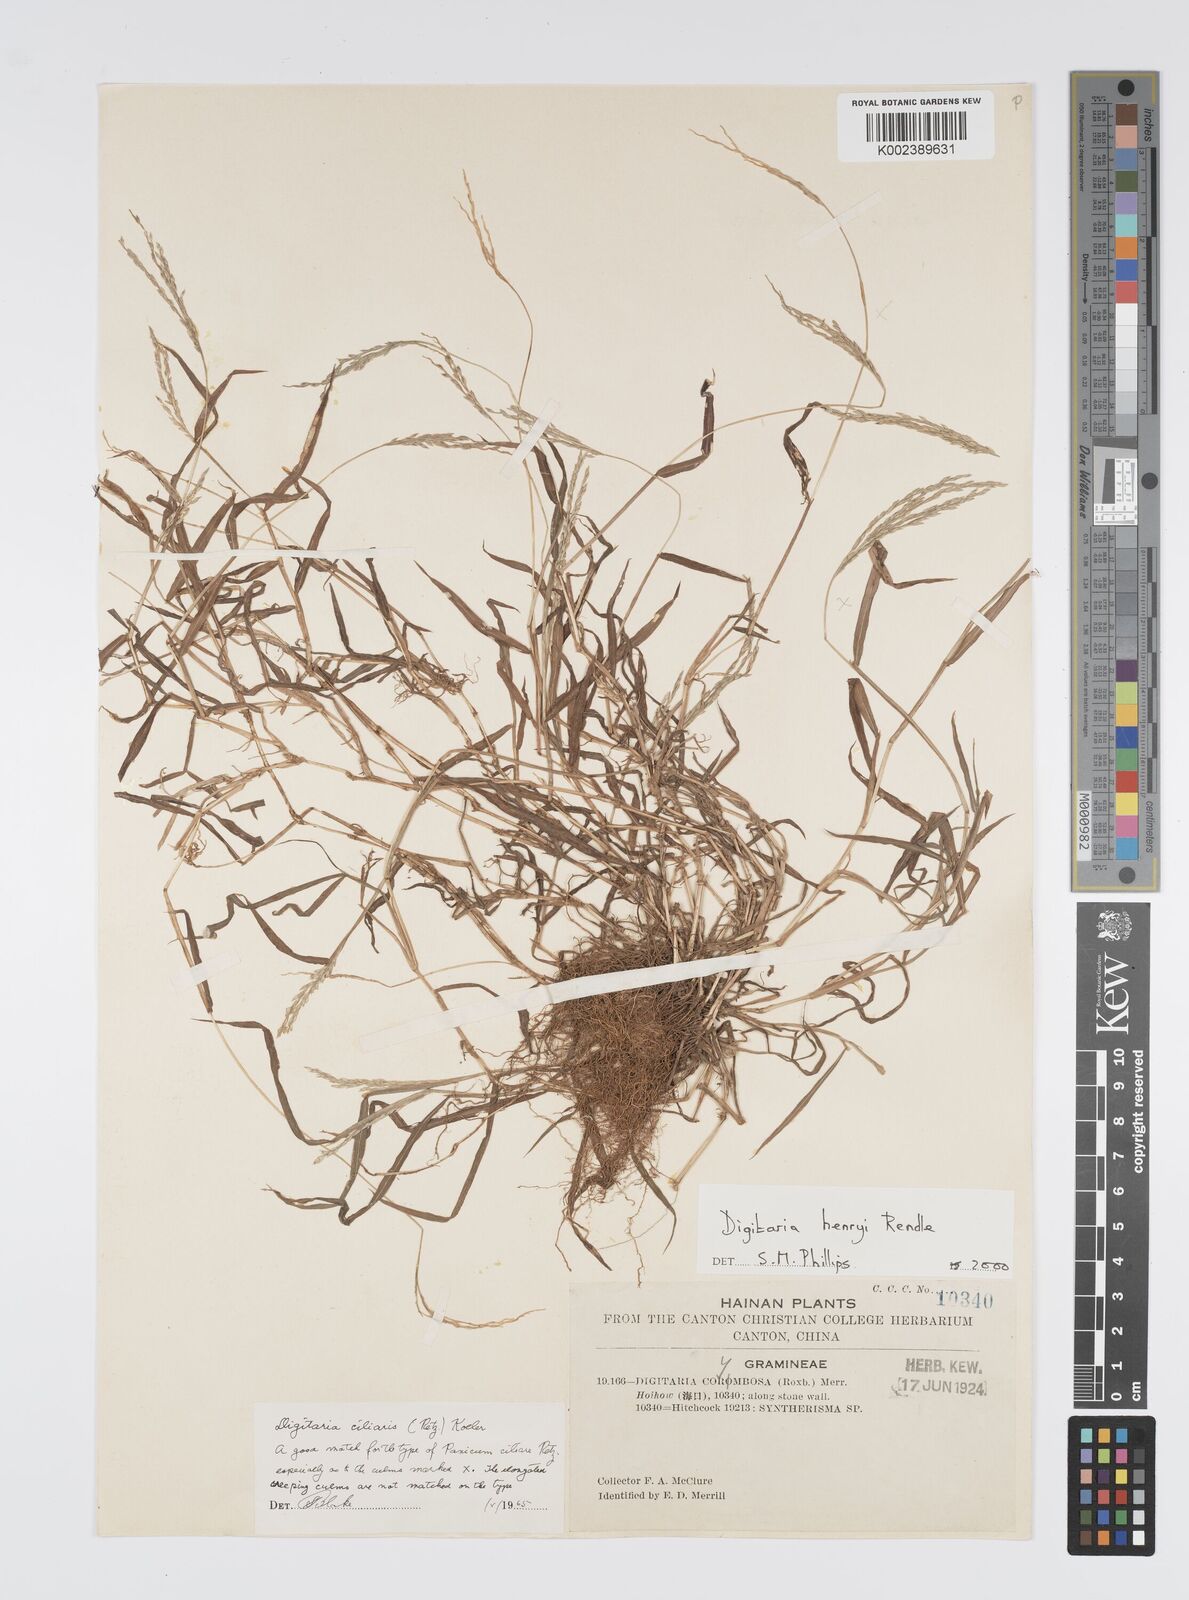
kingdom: Plantae
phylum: Tracheophyta
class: Liliopsida
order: Poales
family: Poaceae
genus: Digitaria
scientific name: Digitaria ciliaris
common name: Tropical finger-grass
